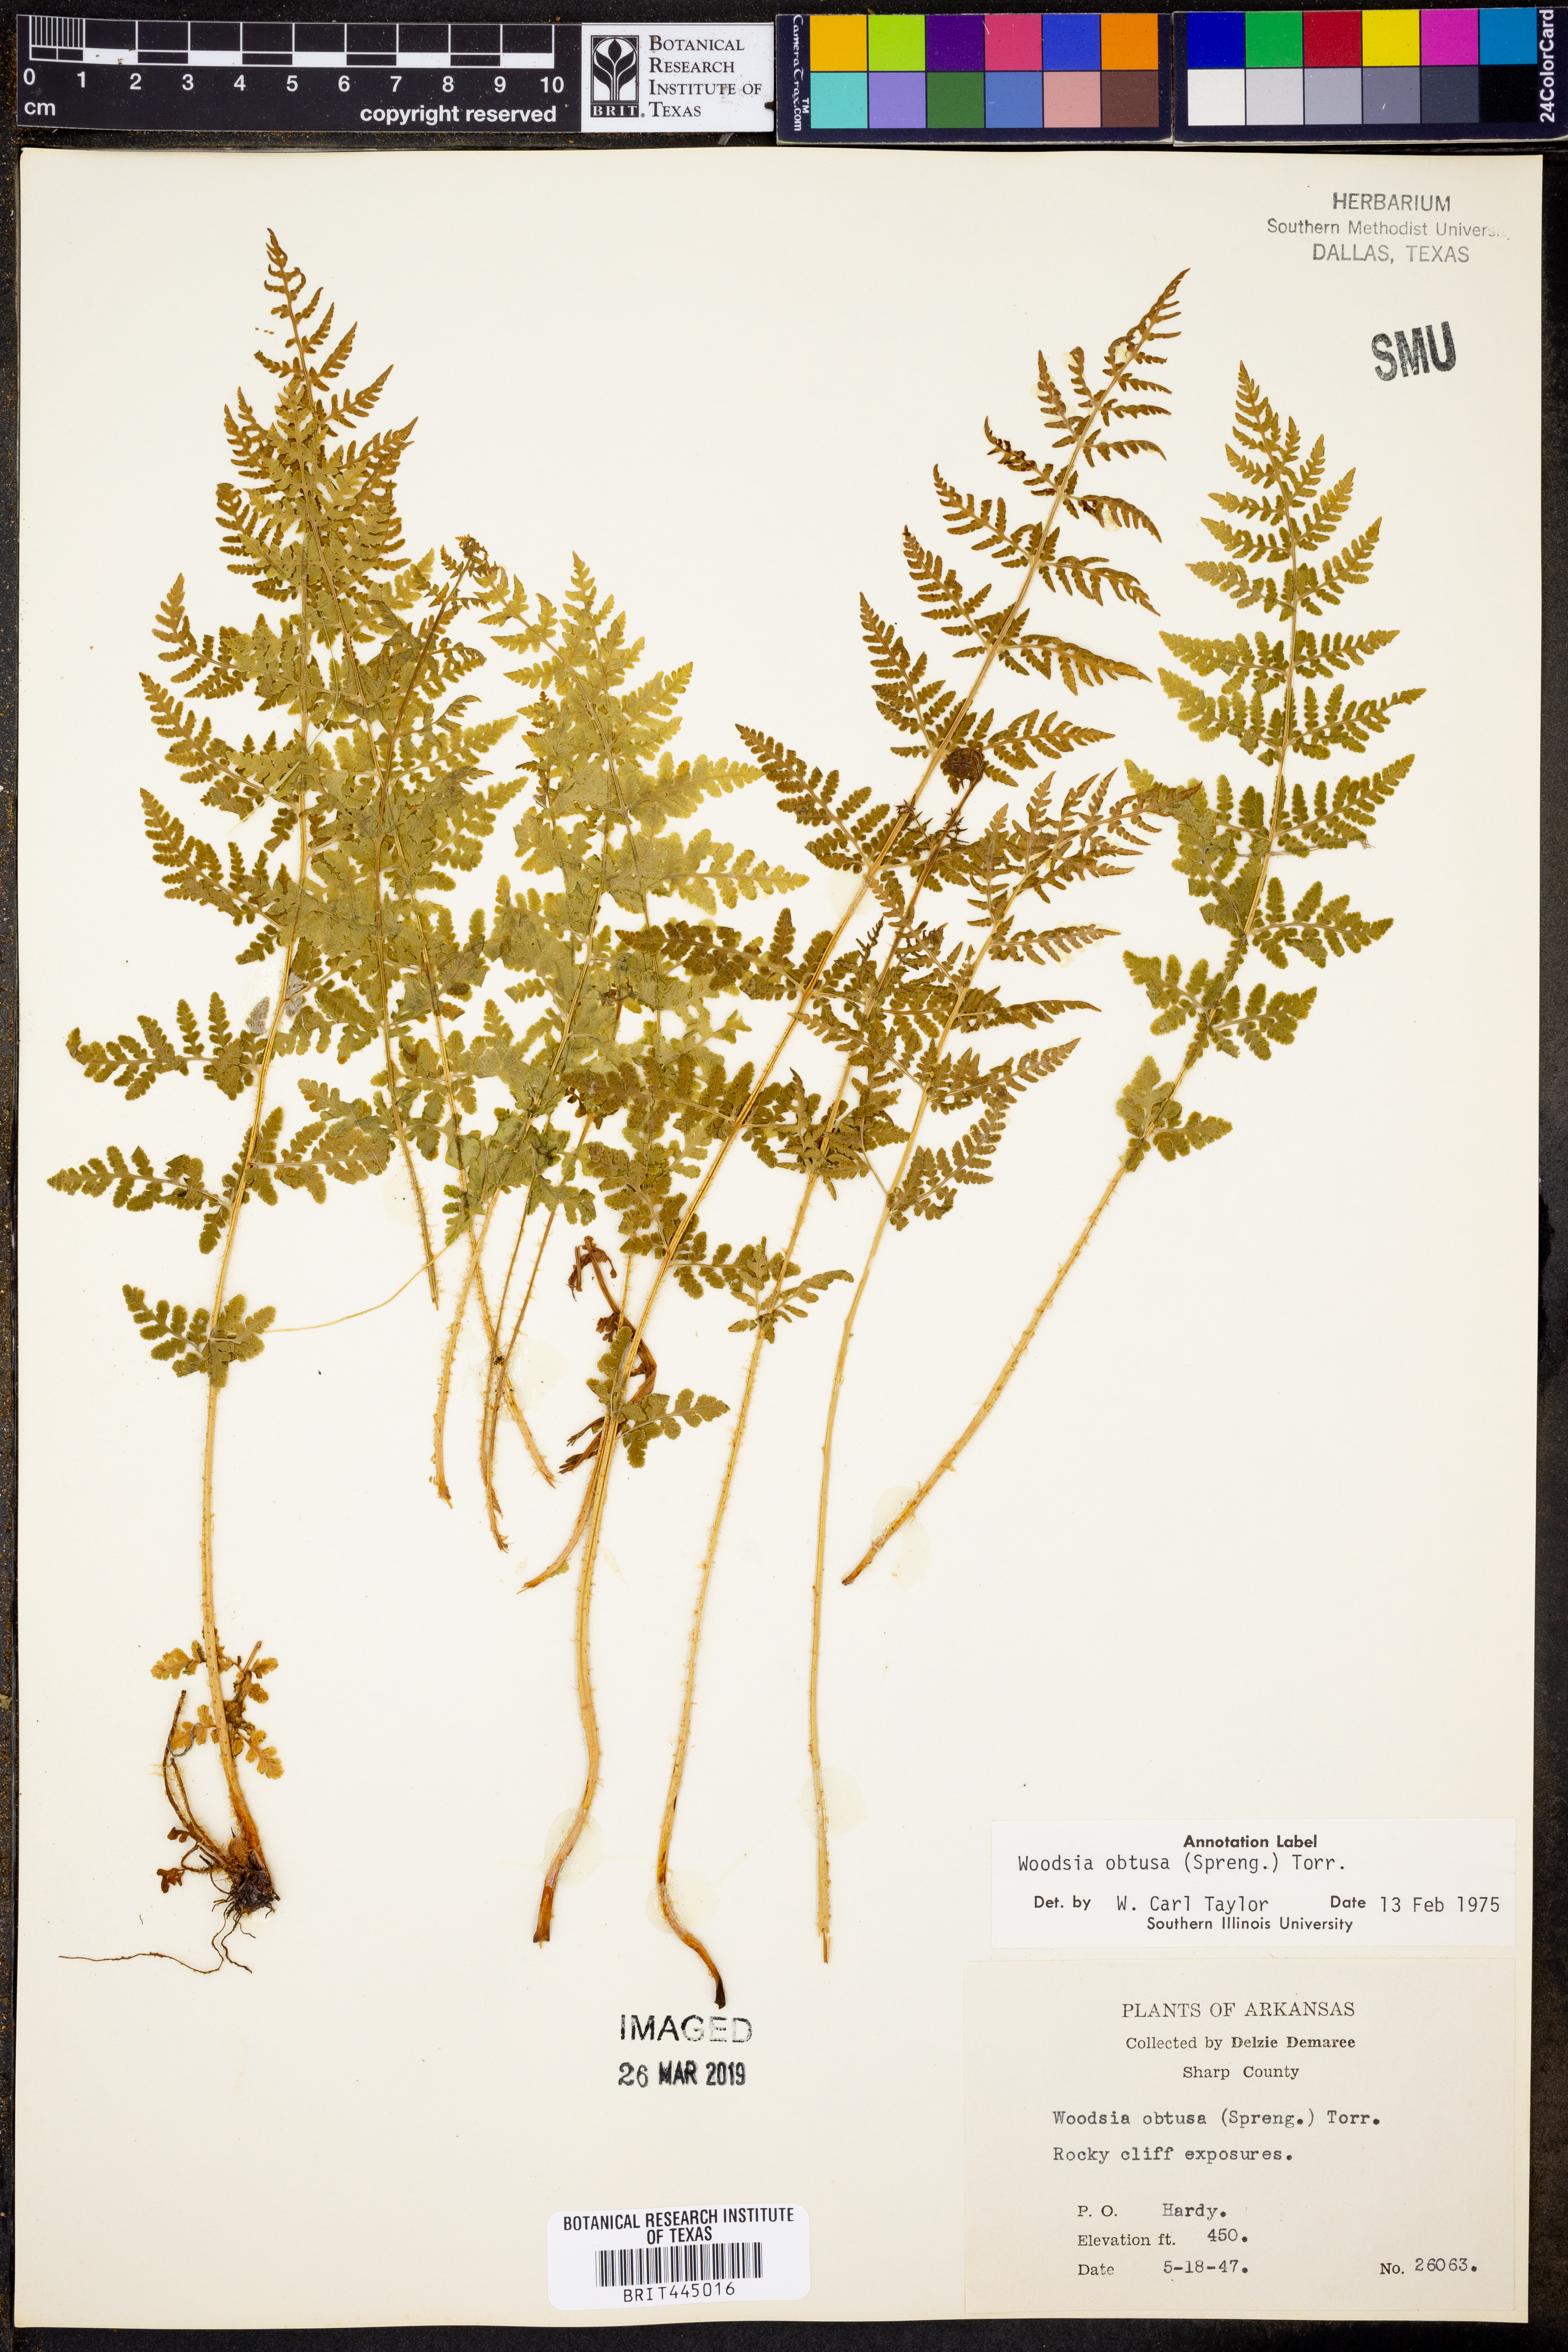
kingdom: Plantae
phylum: Tracheophyta
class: Polypodiopsida
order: Polypodiales
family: Woodsiaceae
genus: Physematium
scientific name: Physematium obtusum
